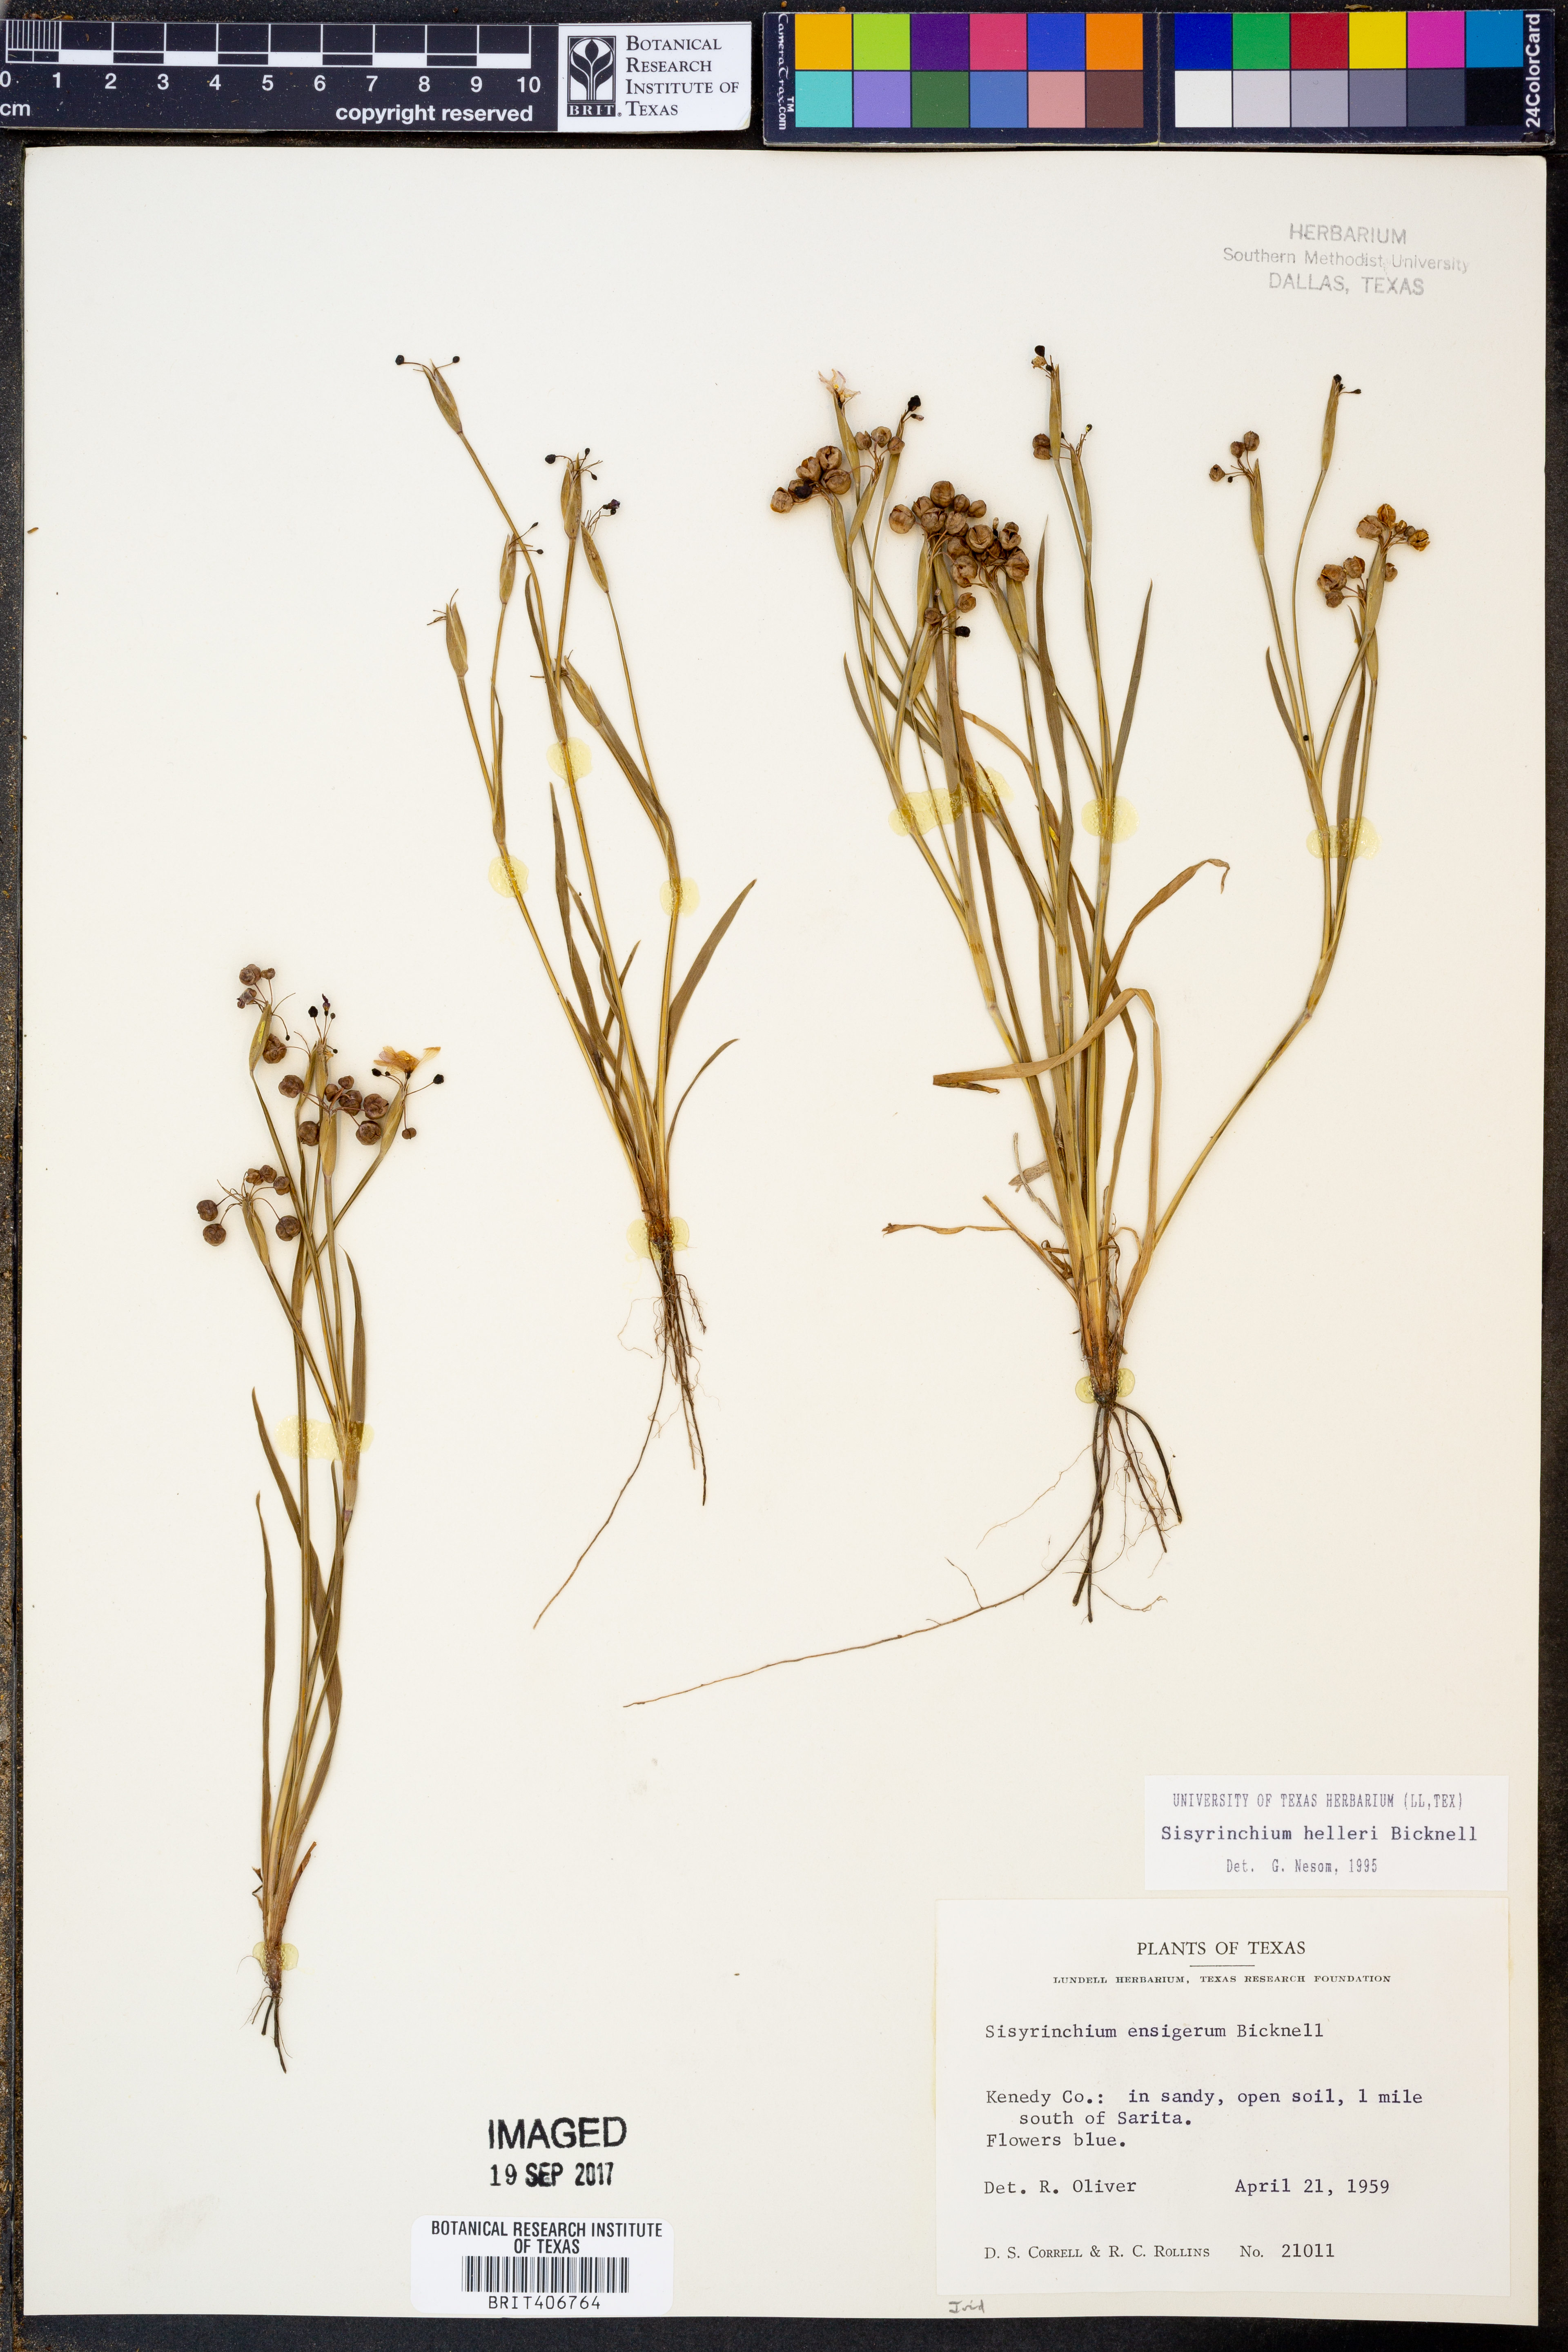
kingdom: Plantae
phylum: Tracheophyta
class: Liliopsida
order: Asparagales
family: Iridaceae
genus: Sisyrinchium
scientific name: Sisyrinchium pruinosum
